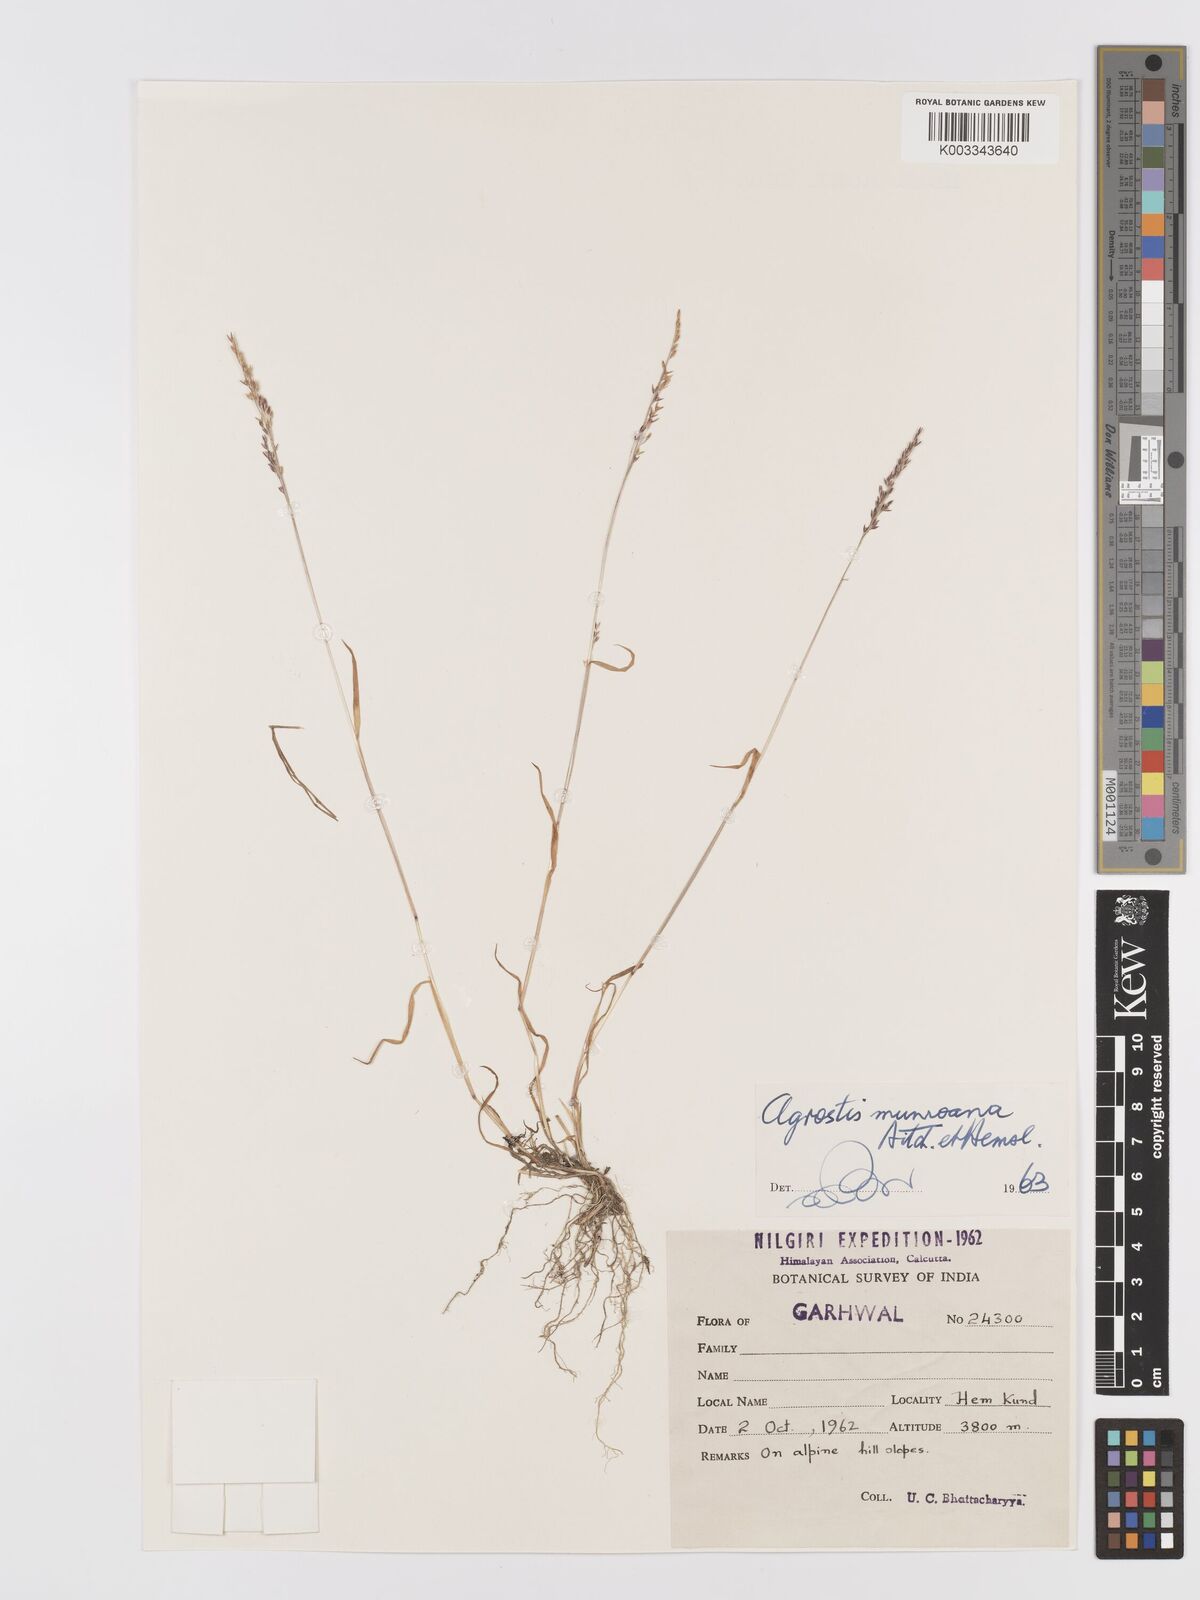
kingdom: Plantae
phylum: Tracheophyta
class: Liliopsida
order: Poales
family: Poaceae
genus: Agrostis
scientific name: Agrostis munroana
